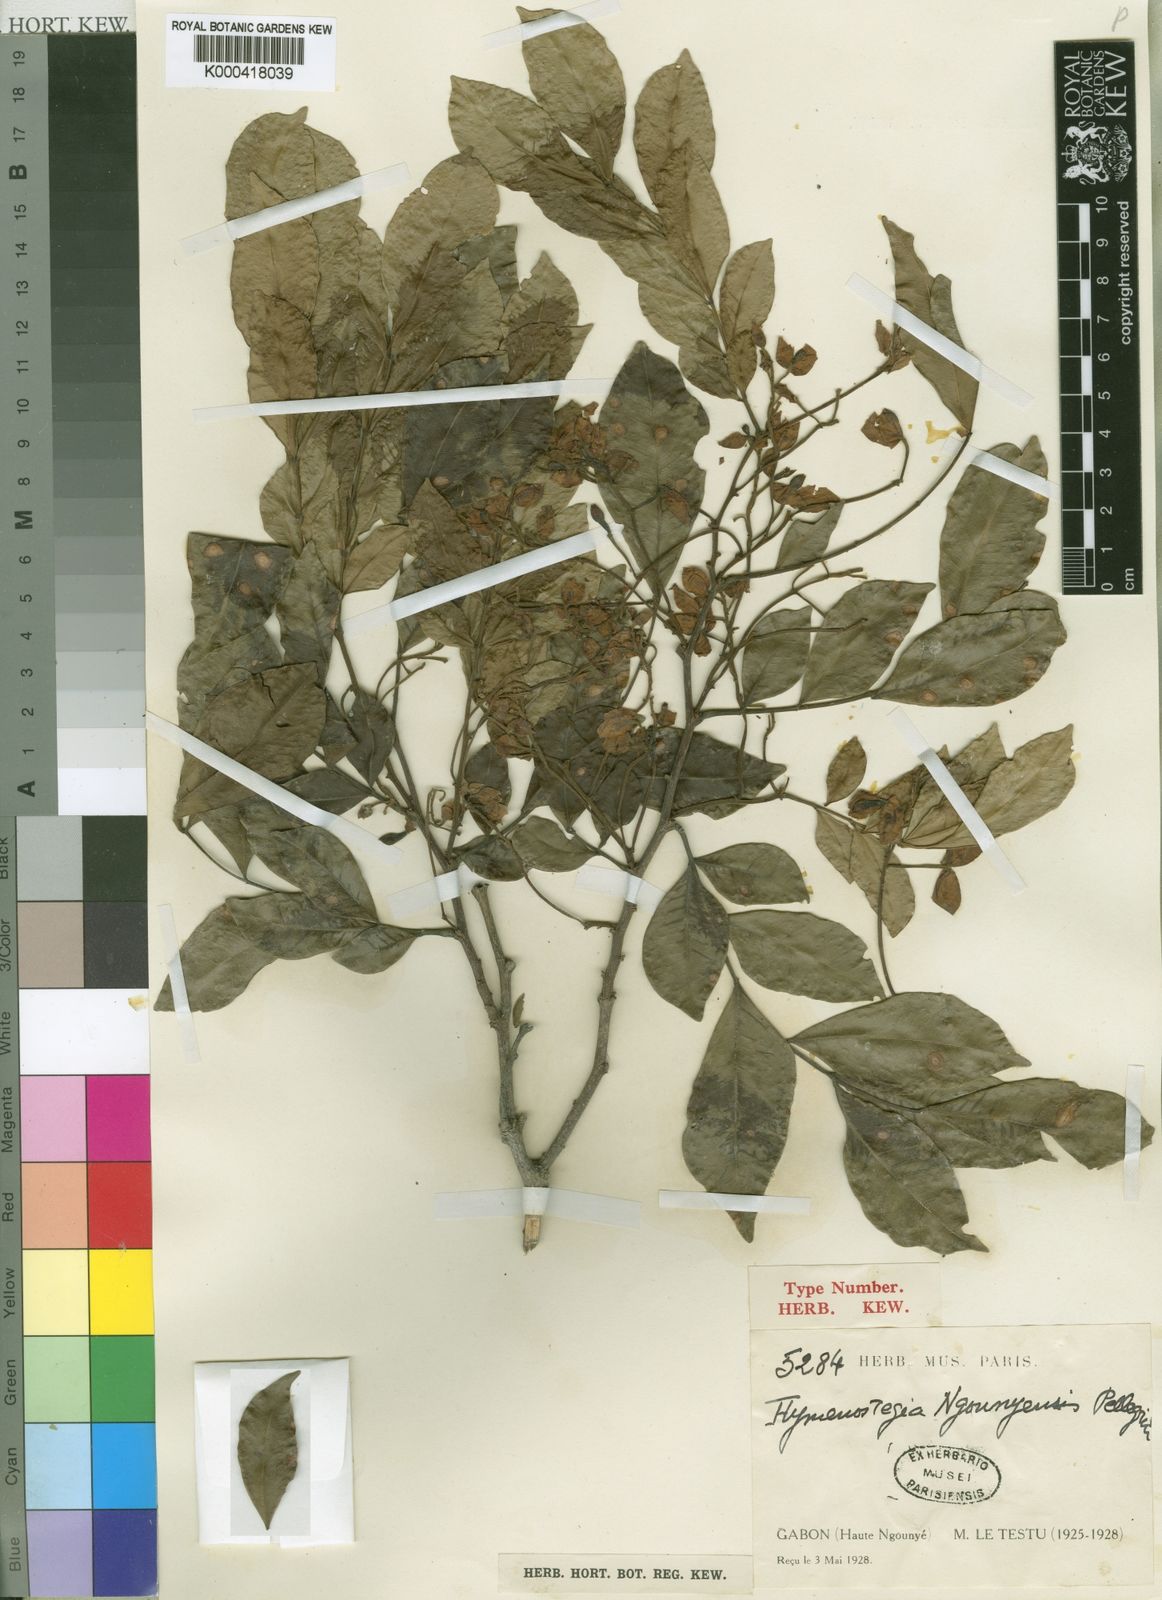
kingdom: Plantae
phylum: Tracheophyta
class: Magnoliopsida
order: Fabales
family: Fabaceae
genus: Hymenostegia
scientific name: Hymenostegia
